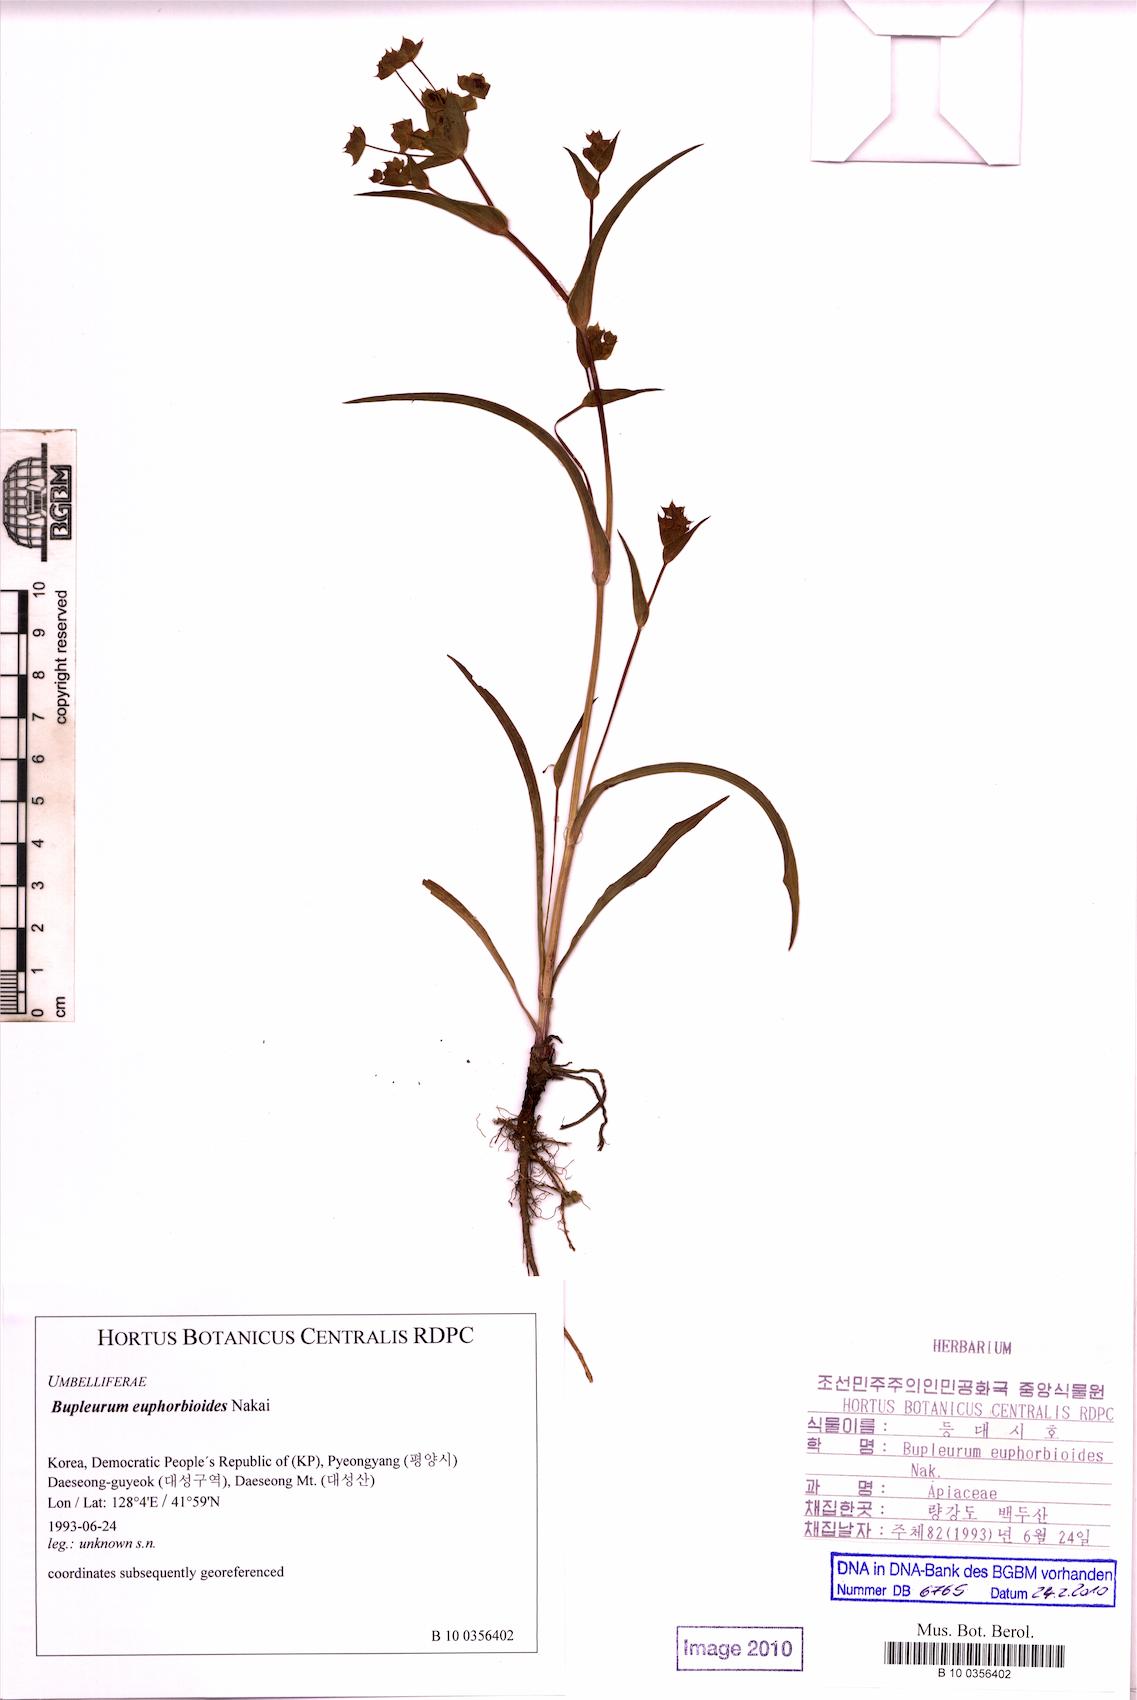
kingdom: Plantae
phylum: Tracheophyta
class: Magnoliopsida
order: Apiales
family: Apiaceae
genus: Bupleurum
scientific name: Bupleurum euphorbioides
